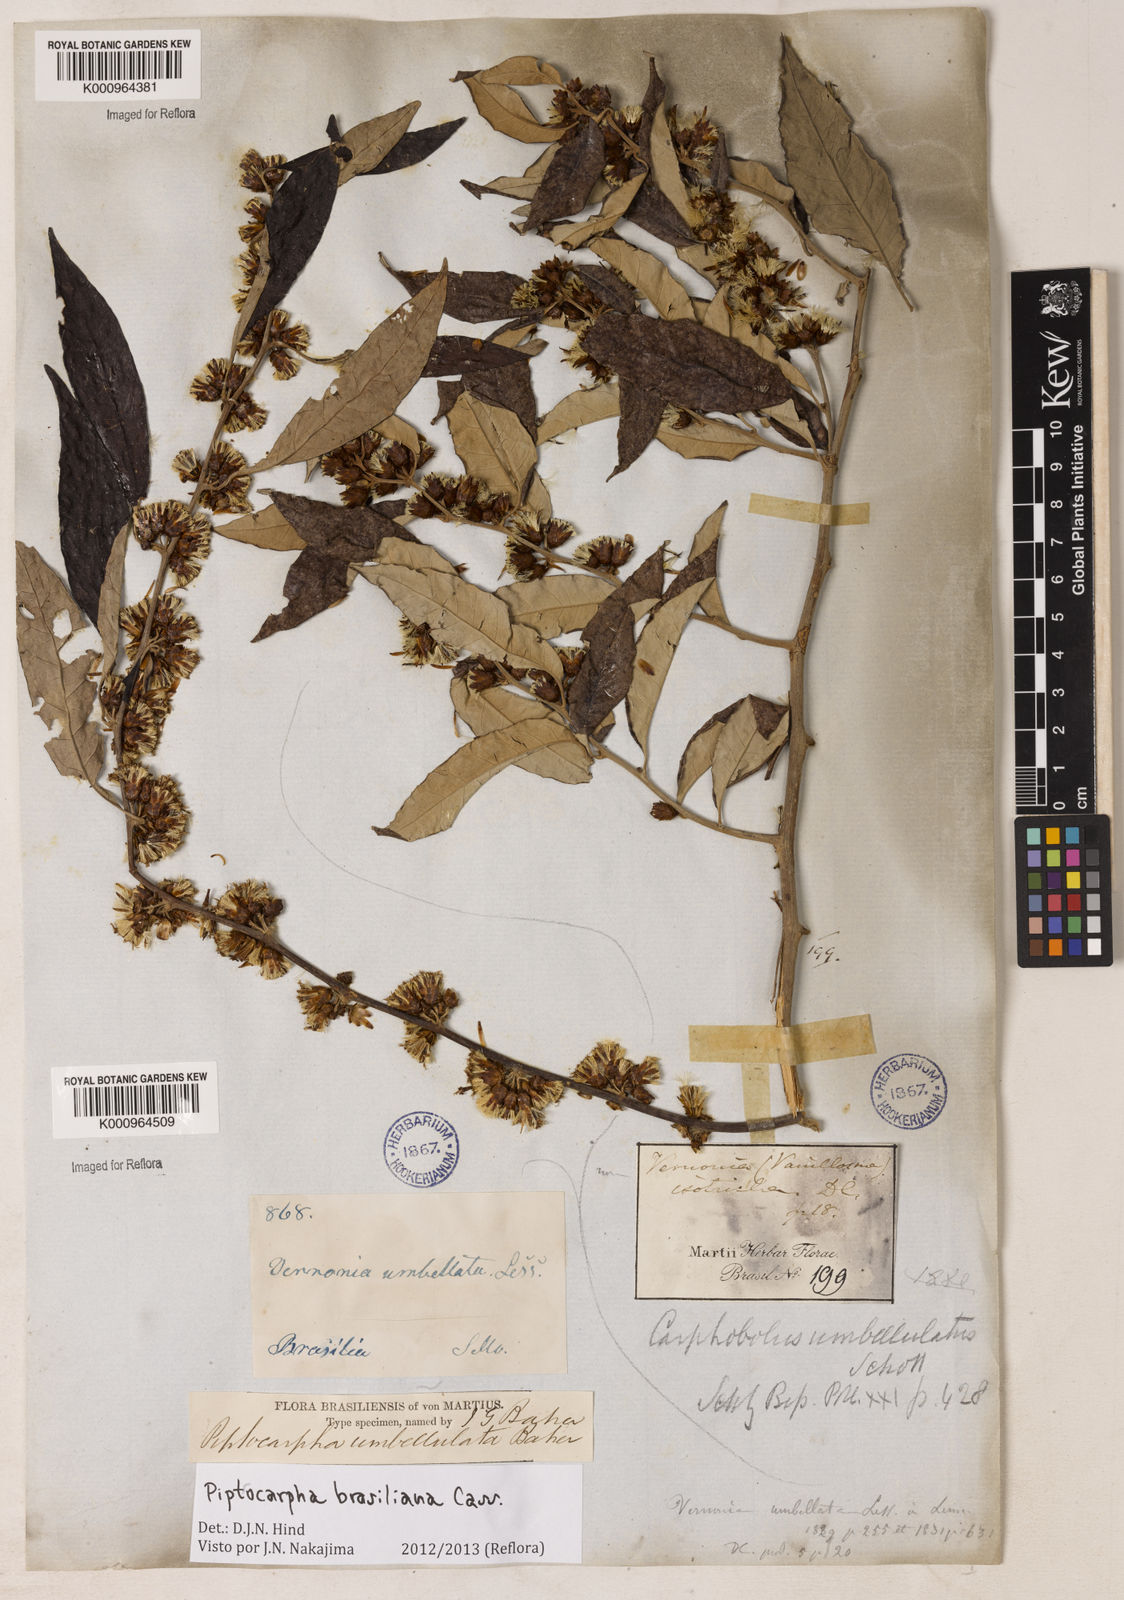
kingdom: Plantae
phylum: Tracheophyta
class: Magnoliopsida
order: Asterales
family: Asteraceae
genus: Piptocarpha
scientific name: Piptocarpha
